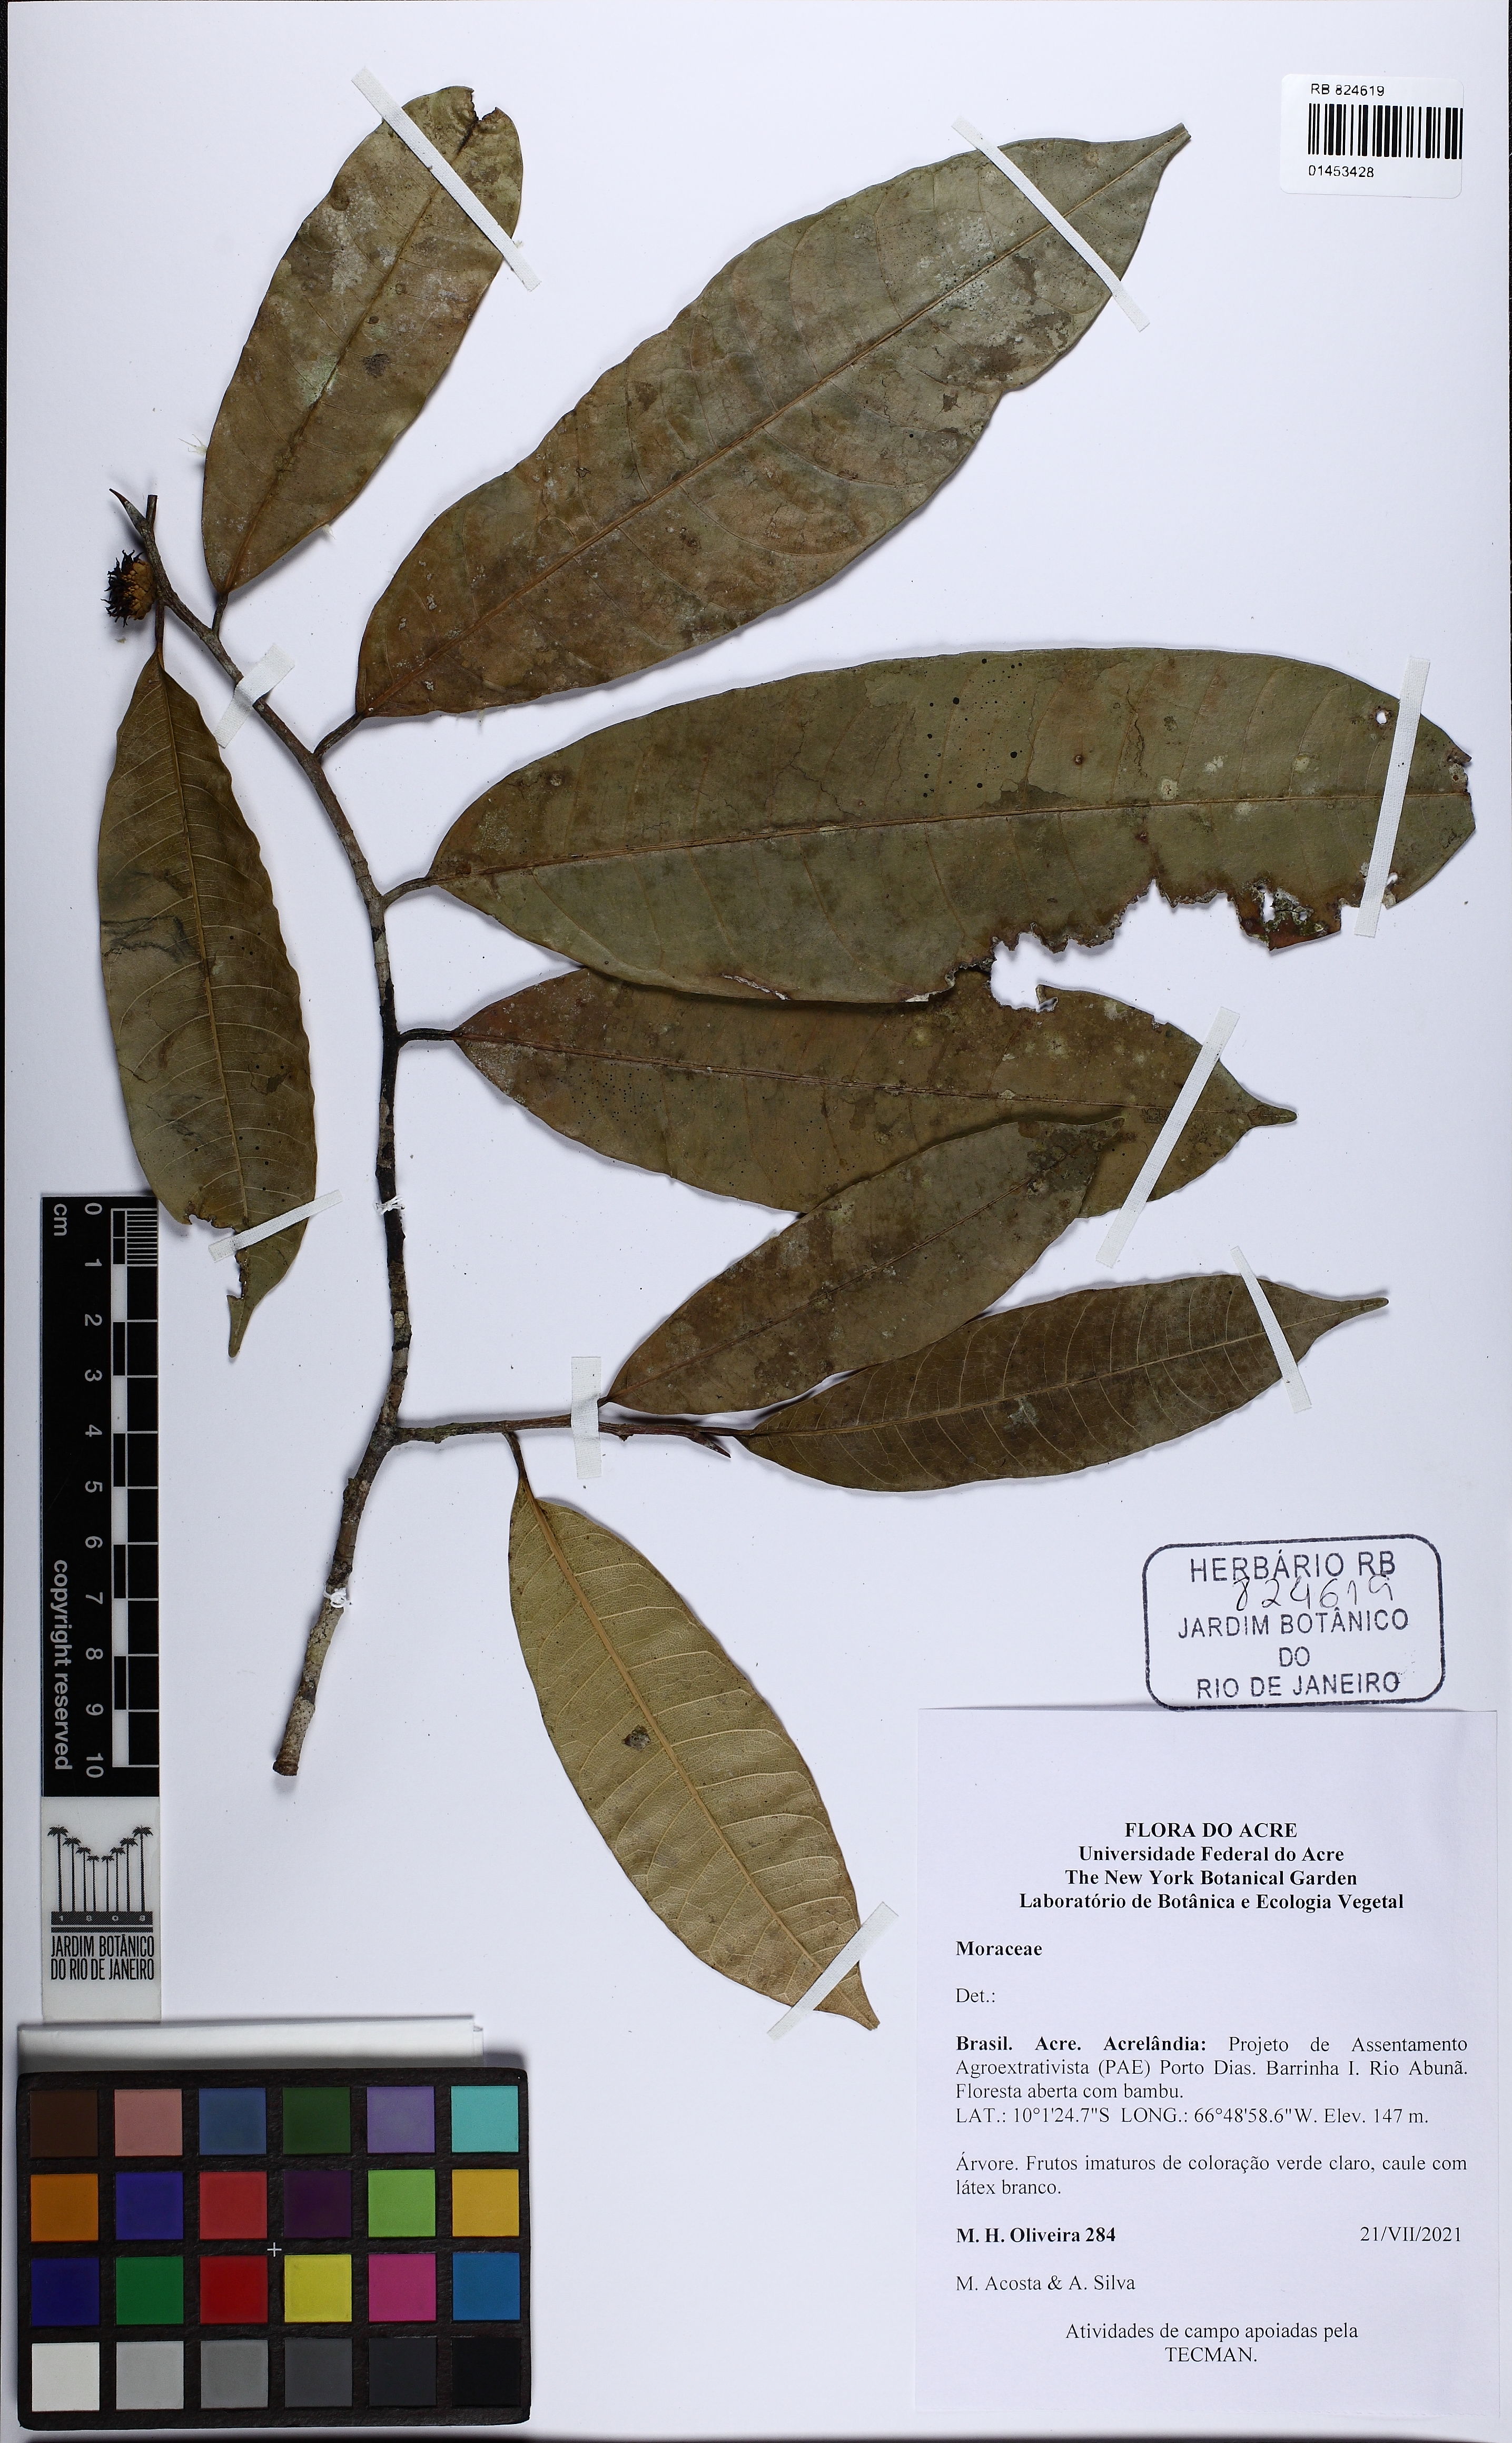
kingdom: Plantae
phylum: Tracheophyta
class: Magnoliopsida
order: Rosales
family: Moraceae
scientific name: Moraceae
